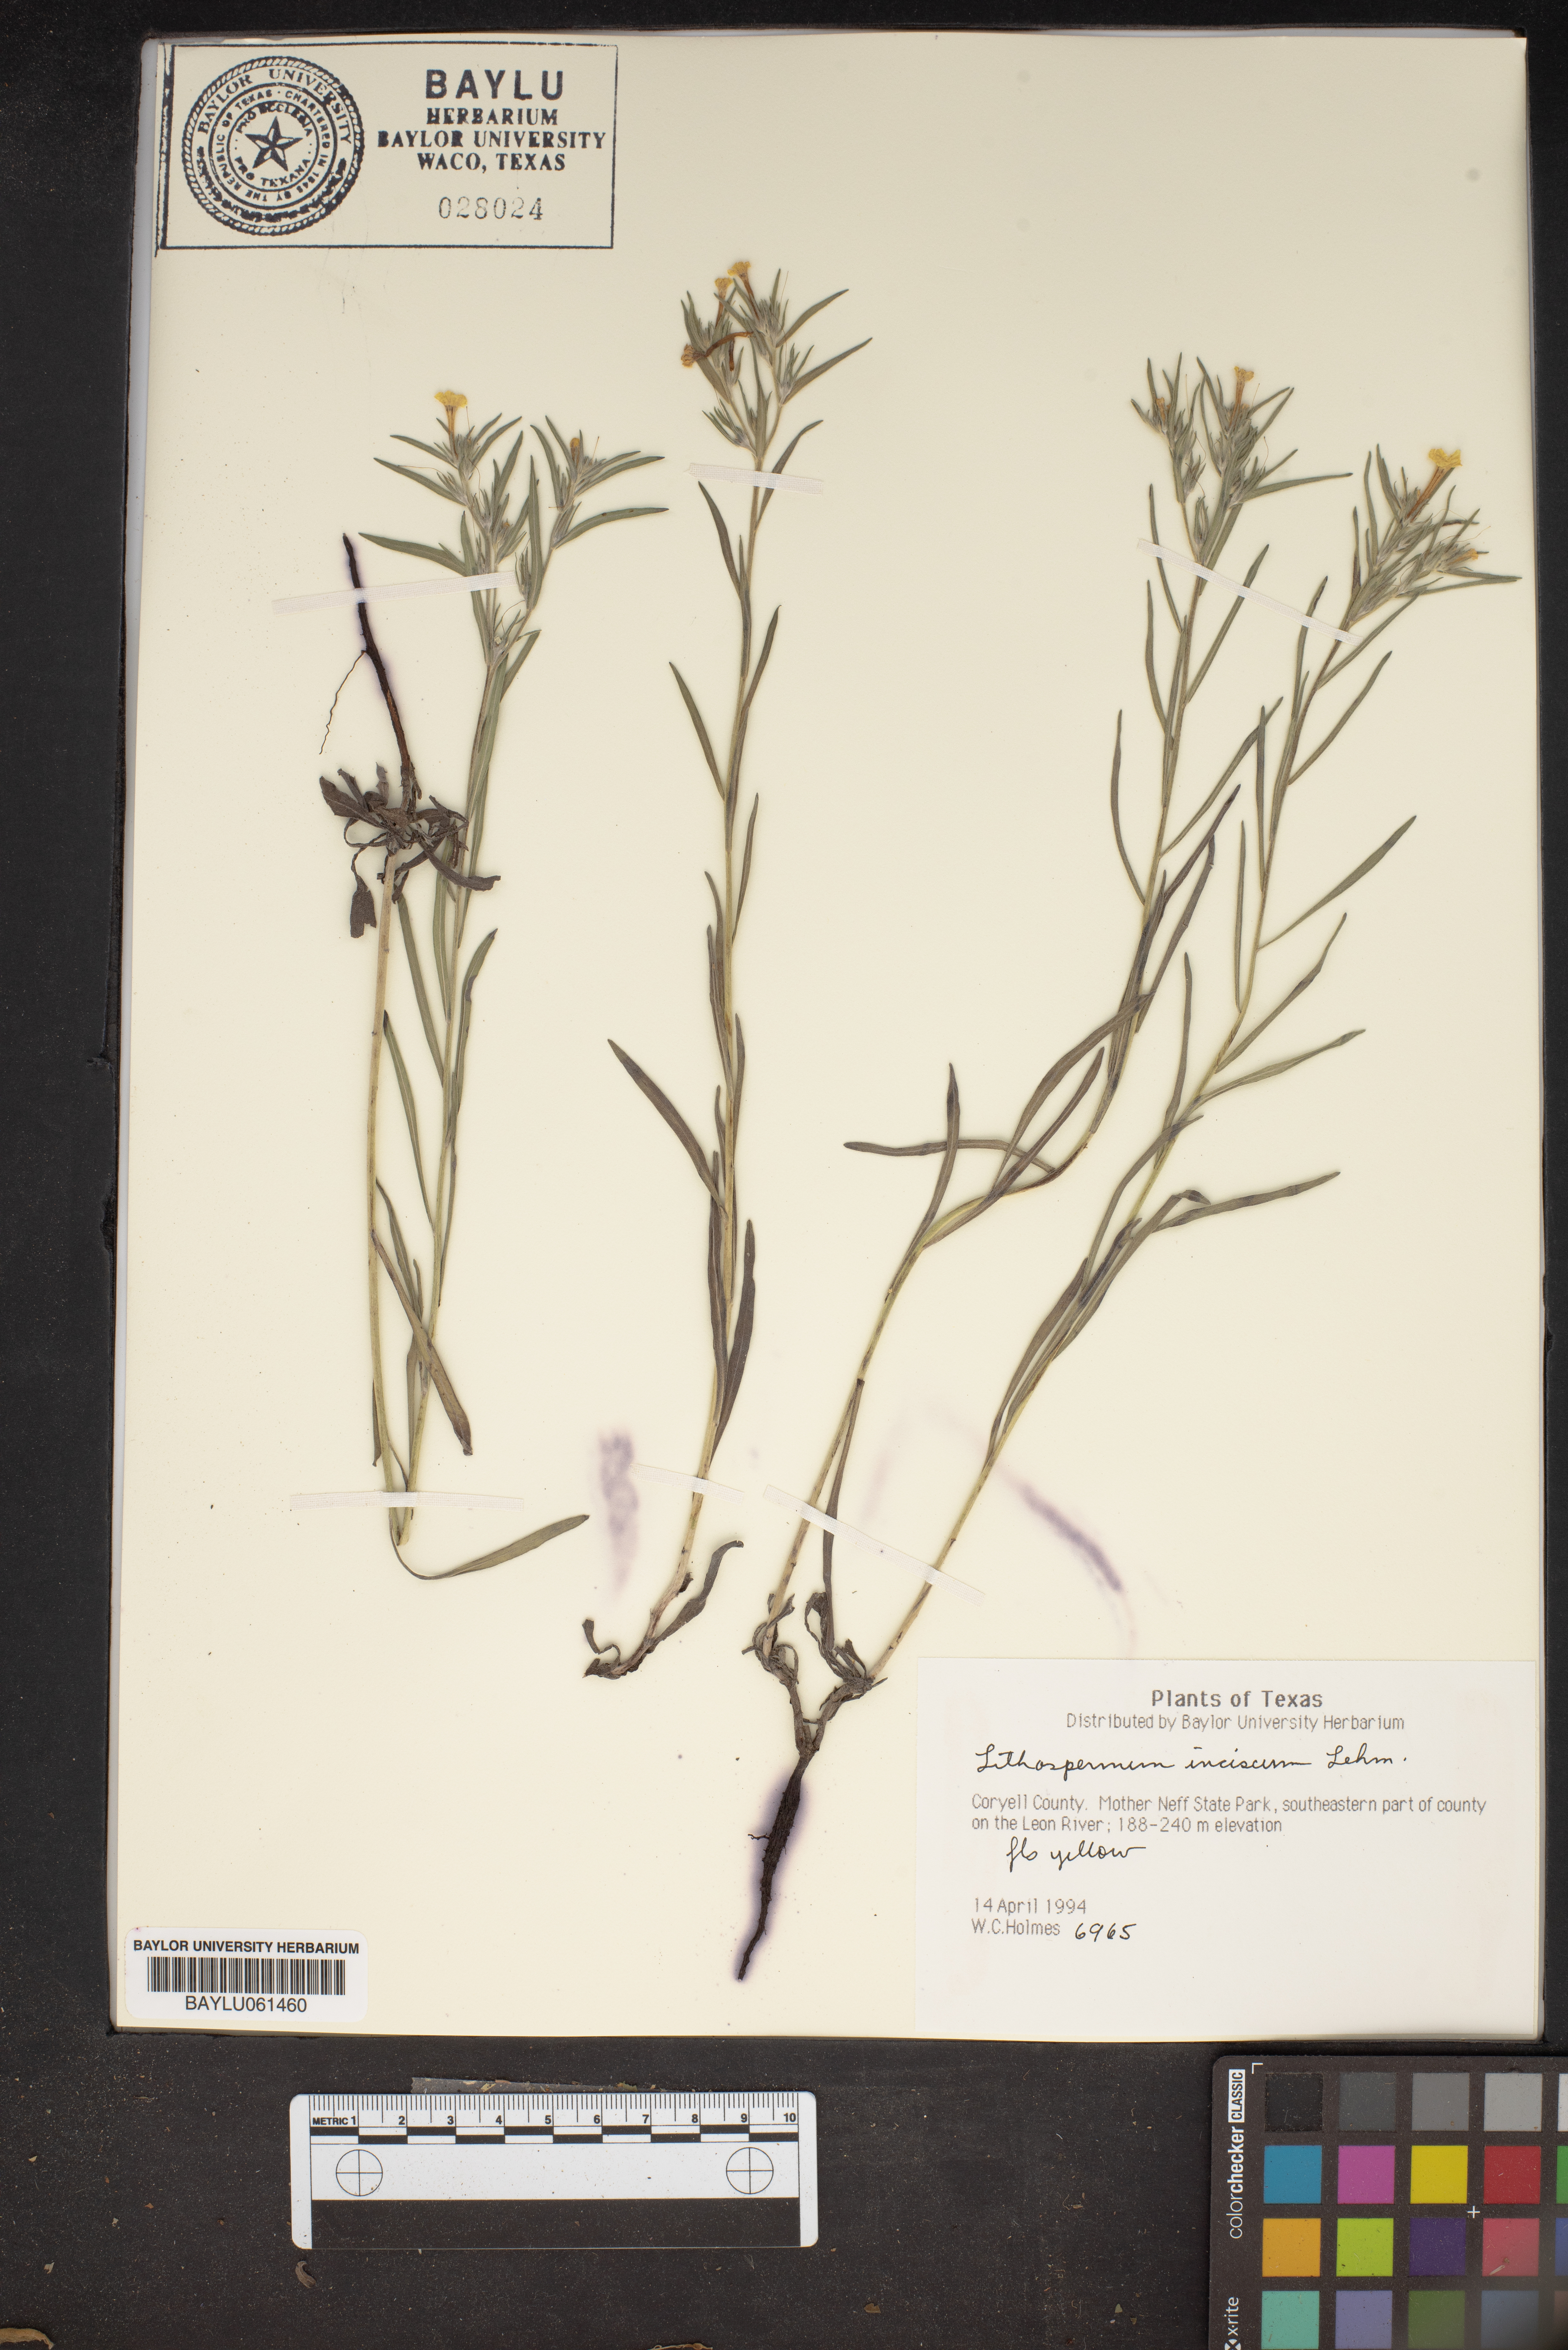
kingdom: Plantae
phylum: Tracheophyta
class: Magnoliopsida
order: Boraginales
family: Boraginaceae
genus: Lithospermum
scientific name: Lithospermum incisum
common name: Fringed gromwell
